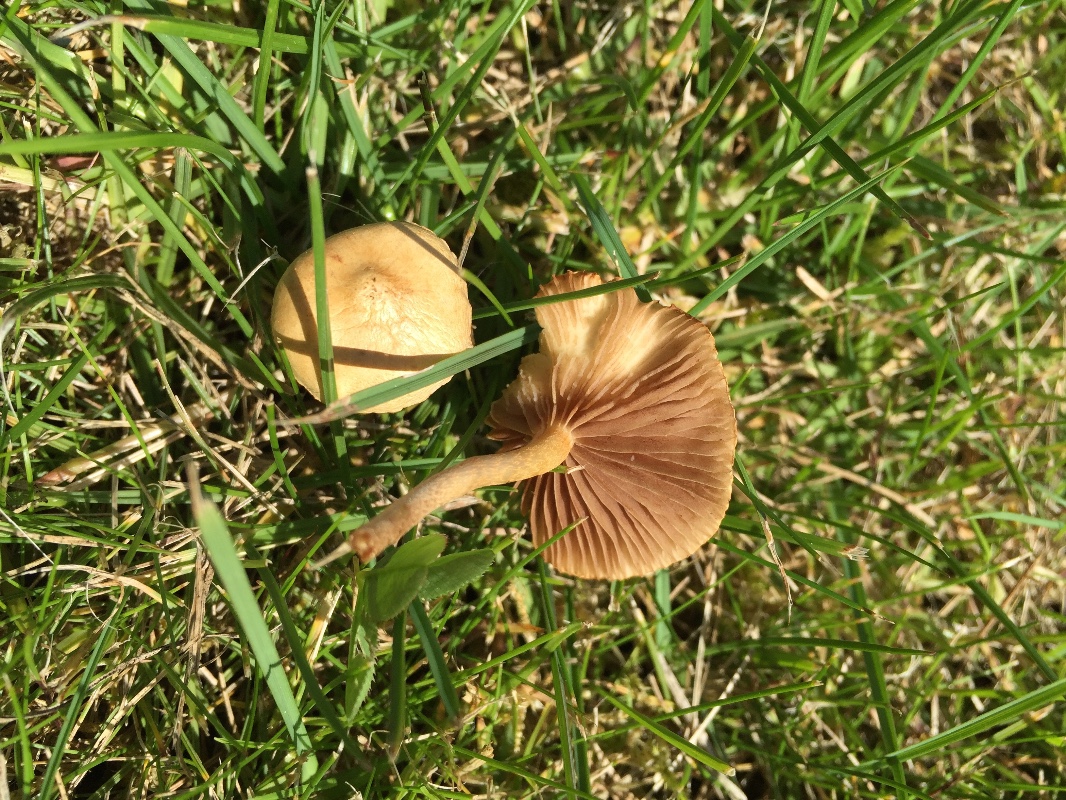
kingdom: Fungi
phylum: Basidiomycota
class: Agaricomycetes
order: Agaricales
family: Strophariaceae
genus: Agrocybe
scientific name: Agrocybe pediades
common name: almindelig agerhat
